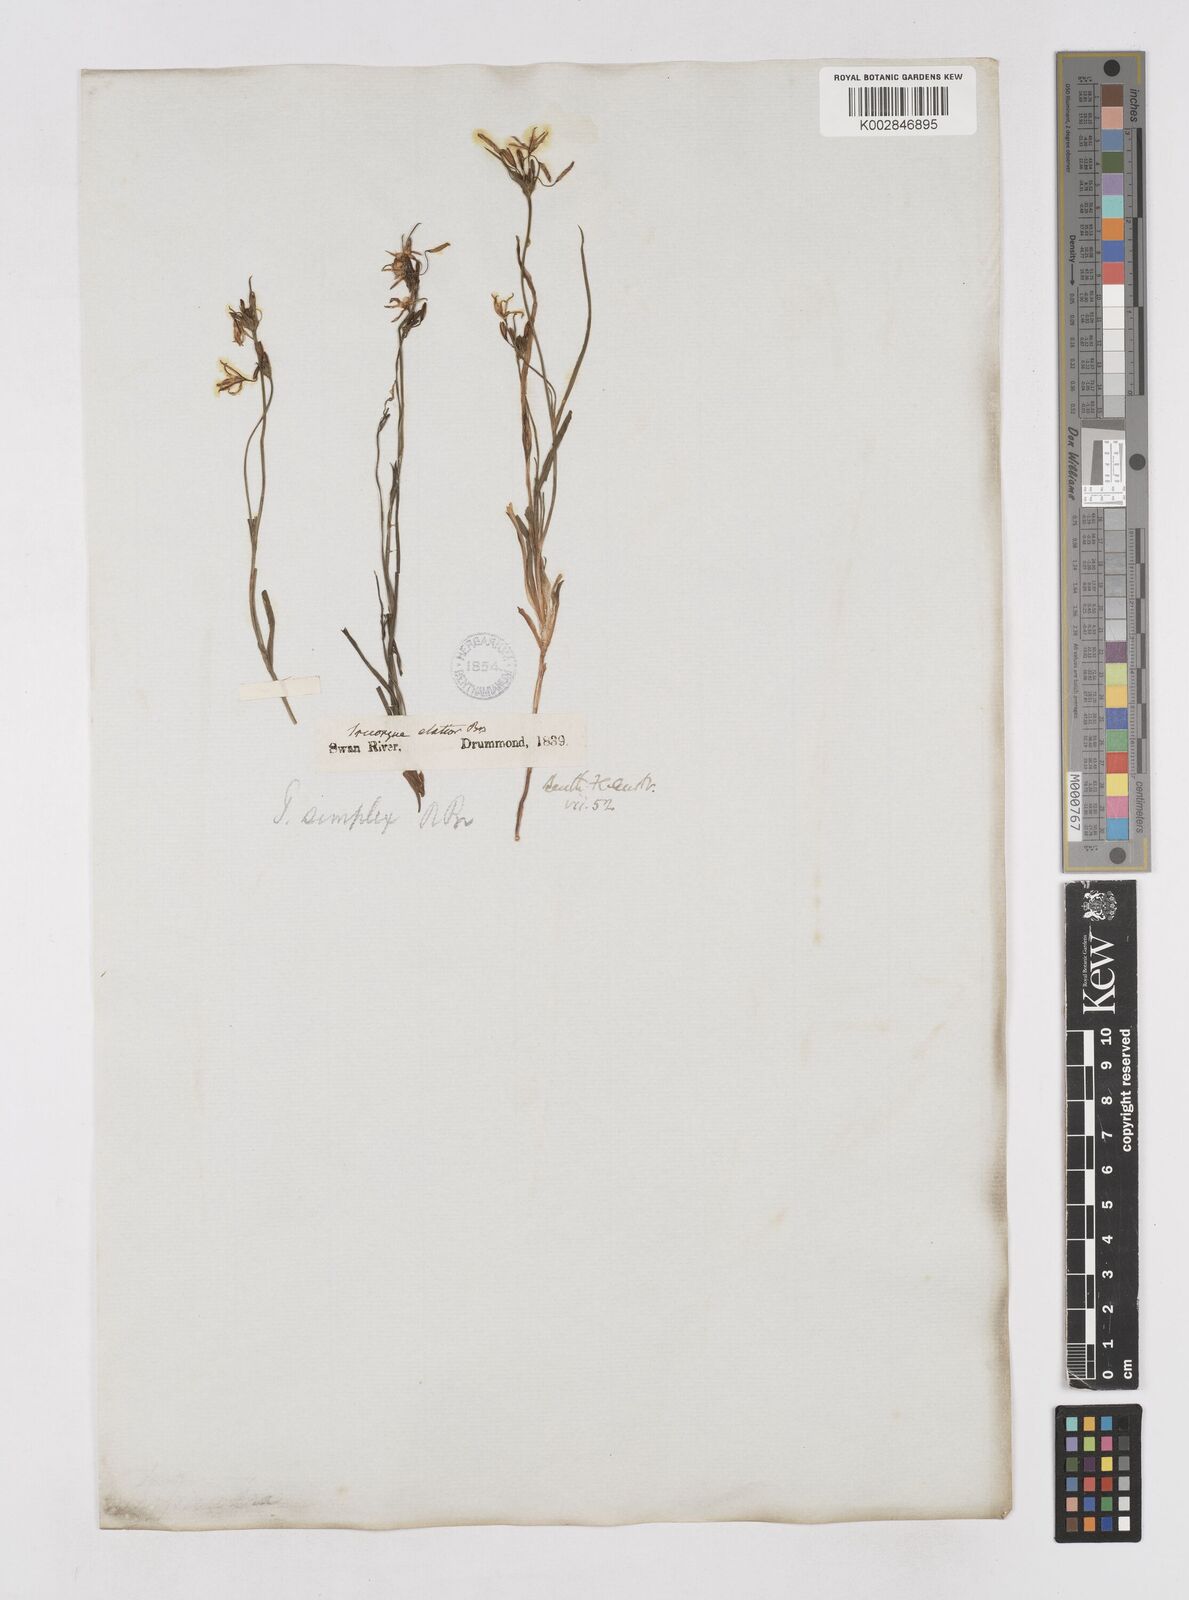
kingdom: Plantae
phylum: Tracheophyta
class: Liliopsida
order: Asparagales
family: Asphodelaceae
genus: Tricoryne
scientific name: Tricoryne elatior
